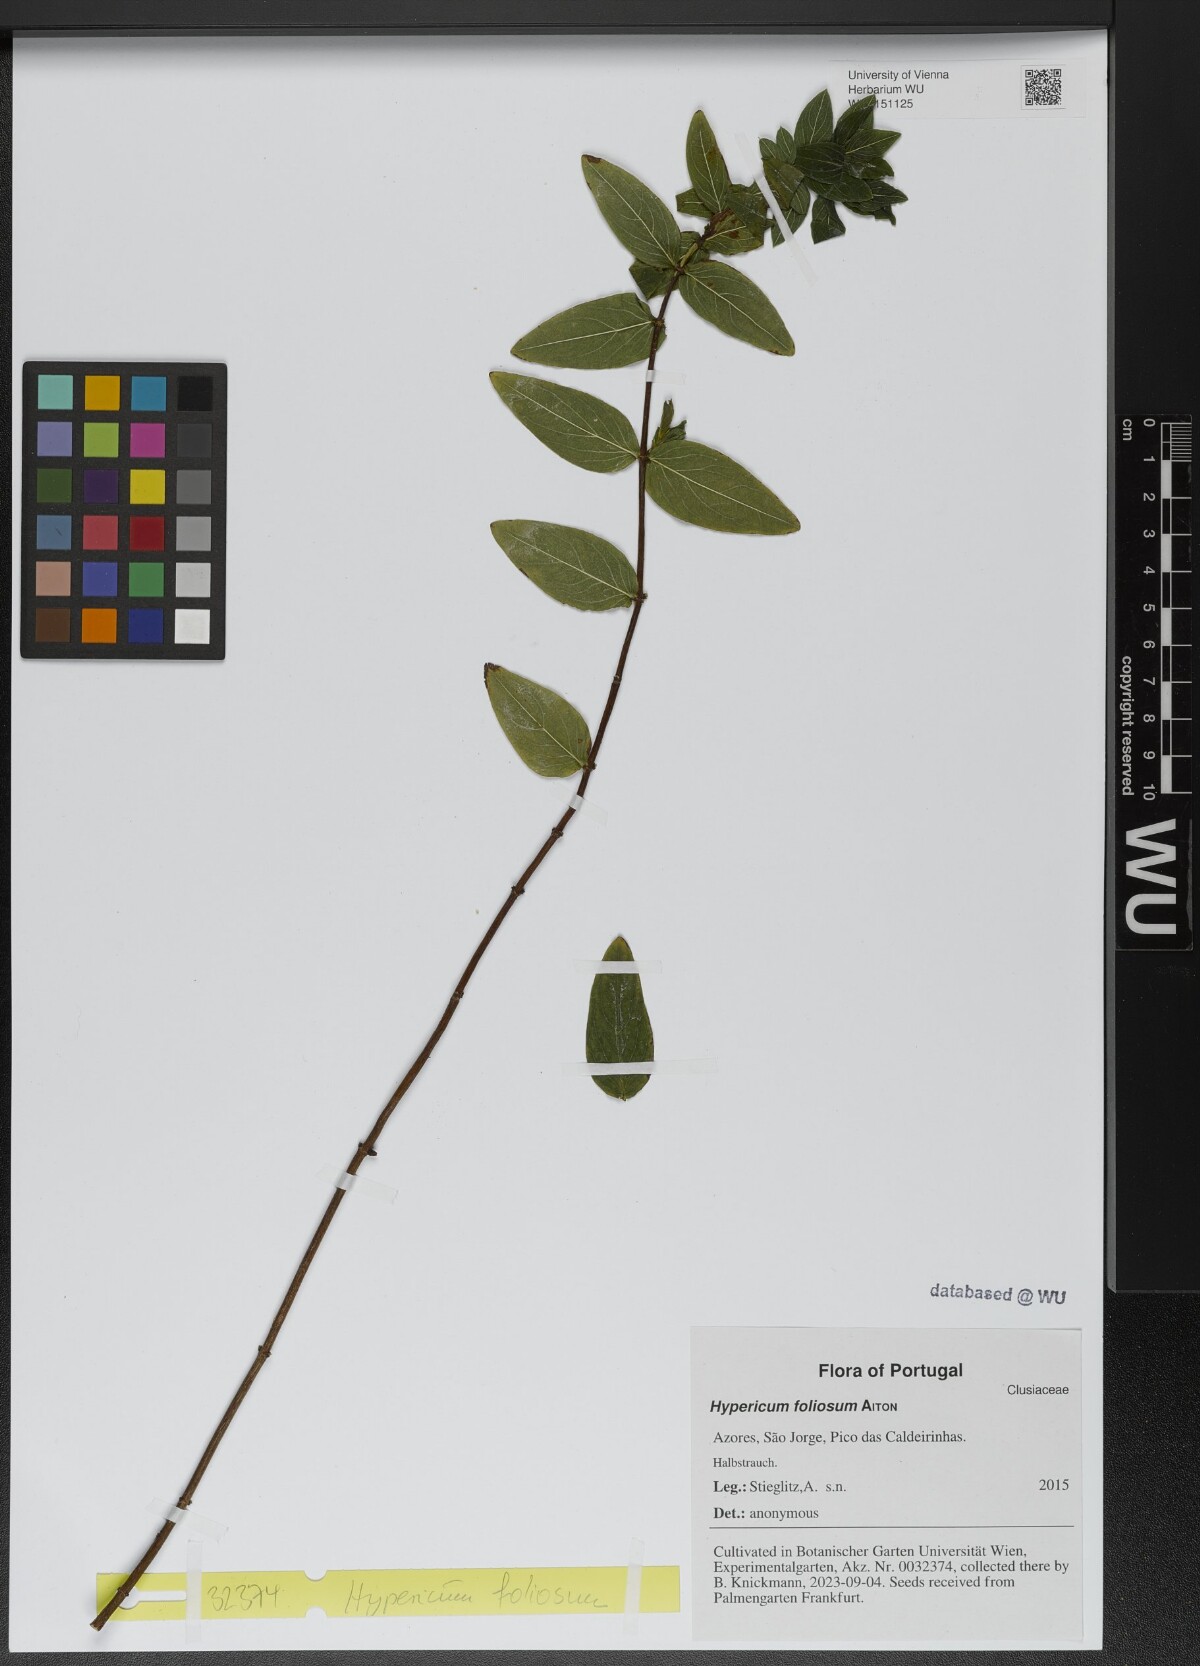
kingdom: Plantae
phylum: Tracheophyta
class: Magnoliopsida
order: Malpighiales
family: Hypericaceae
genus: Hypericum
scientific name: Hypericum foliosum
